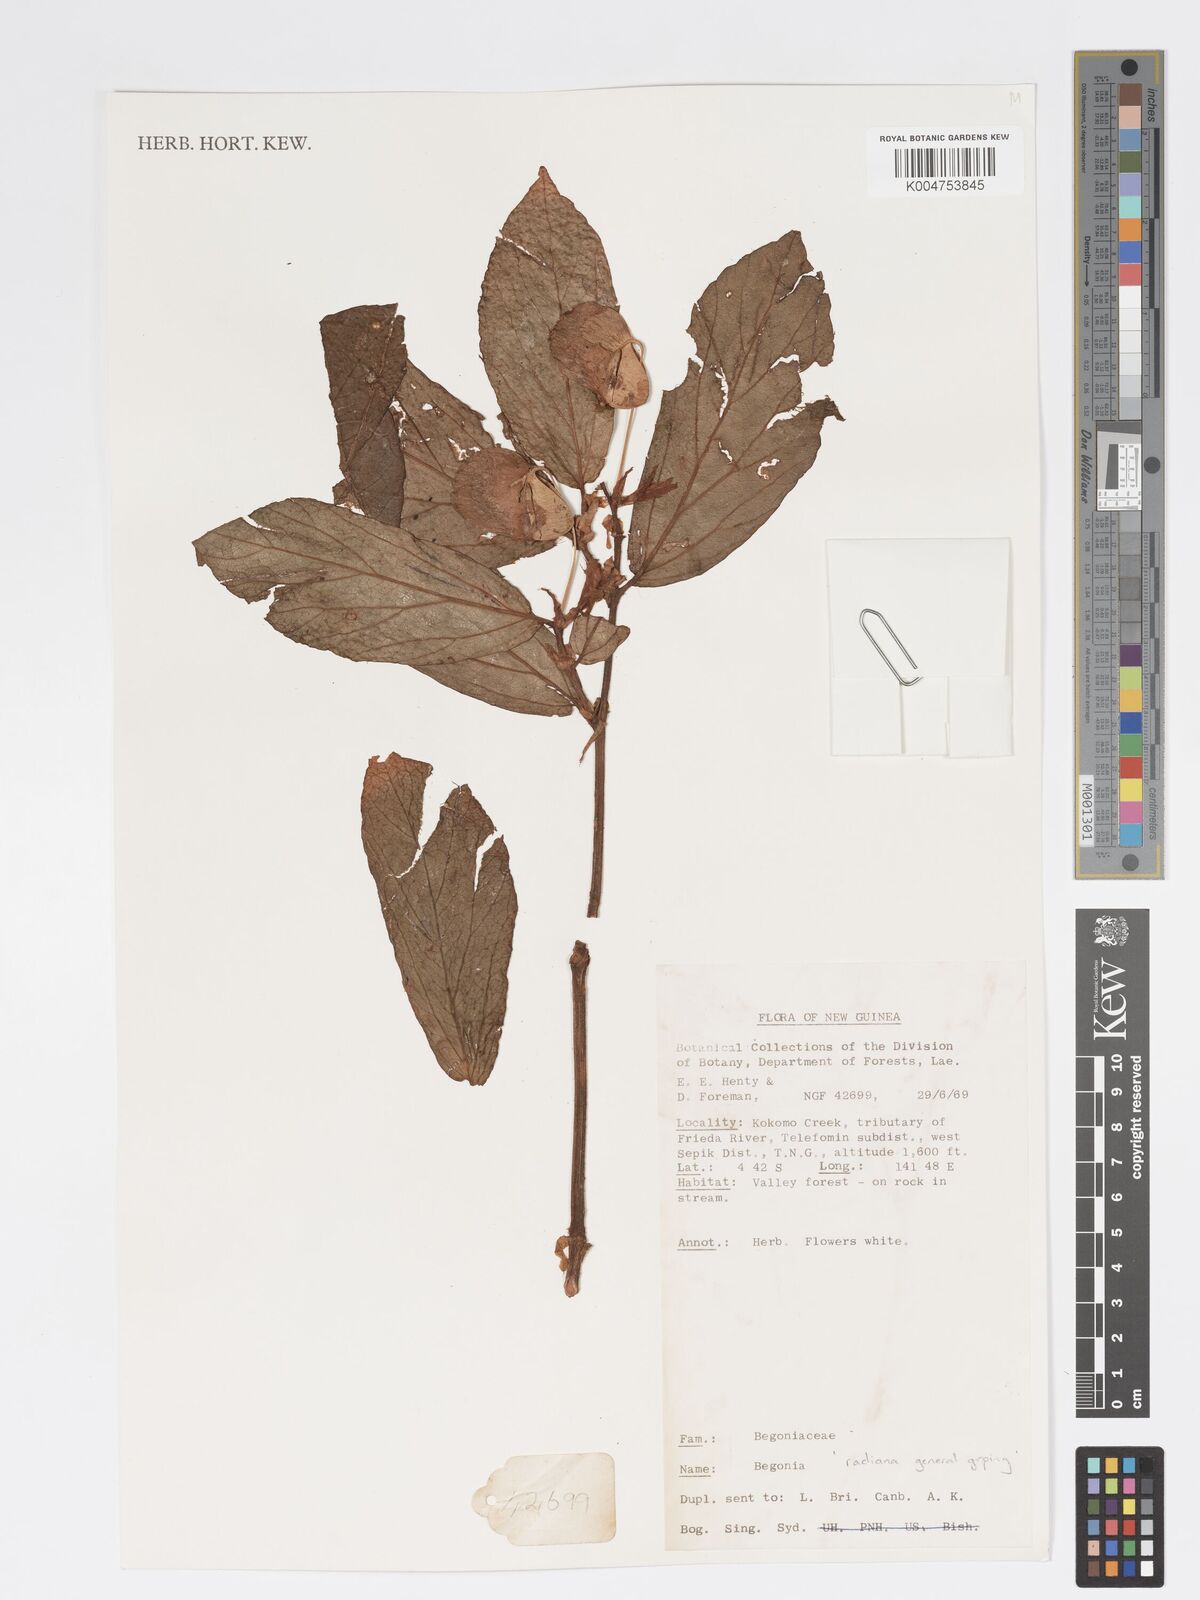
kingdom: Plantae
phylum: Tracheophyta
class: Magnoliopsida
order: Cucurbitales
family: Begoniaceae
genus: Begonia
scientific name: Begonia
